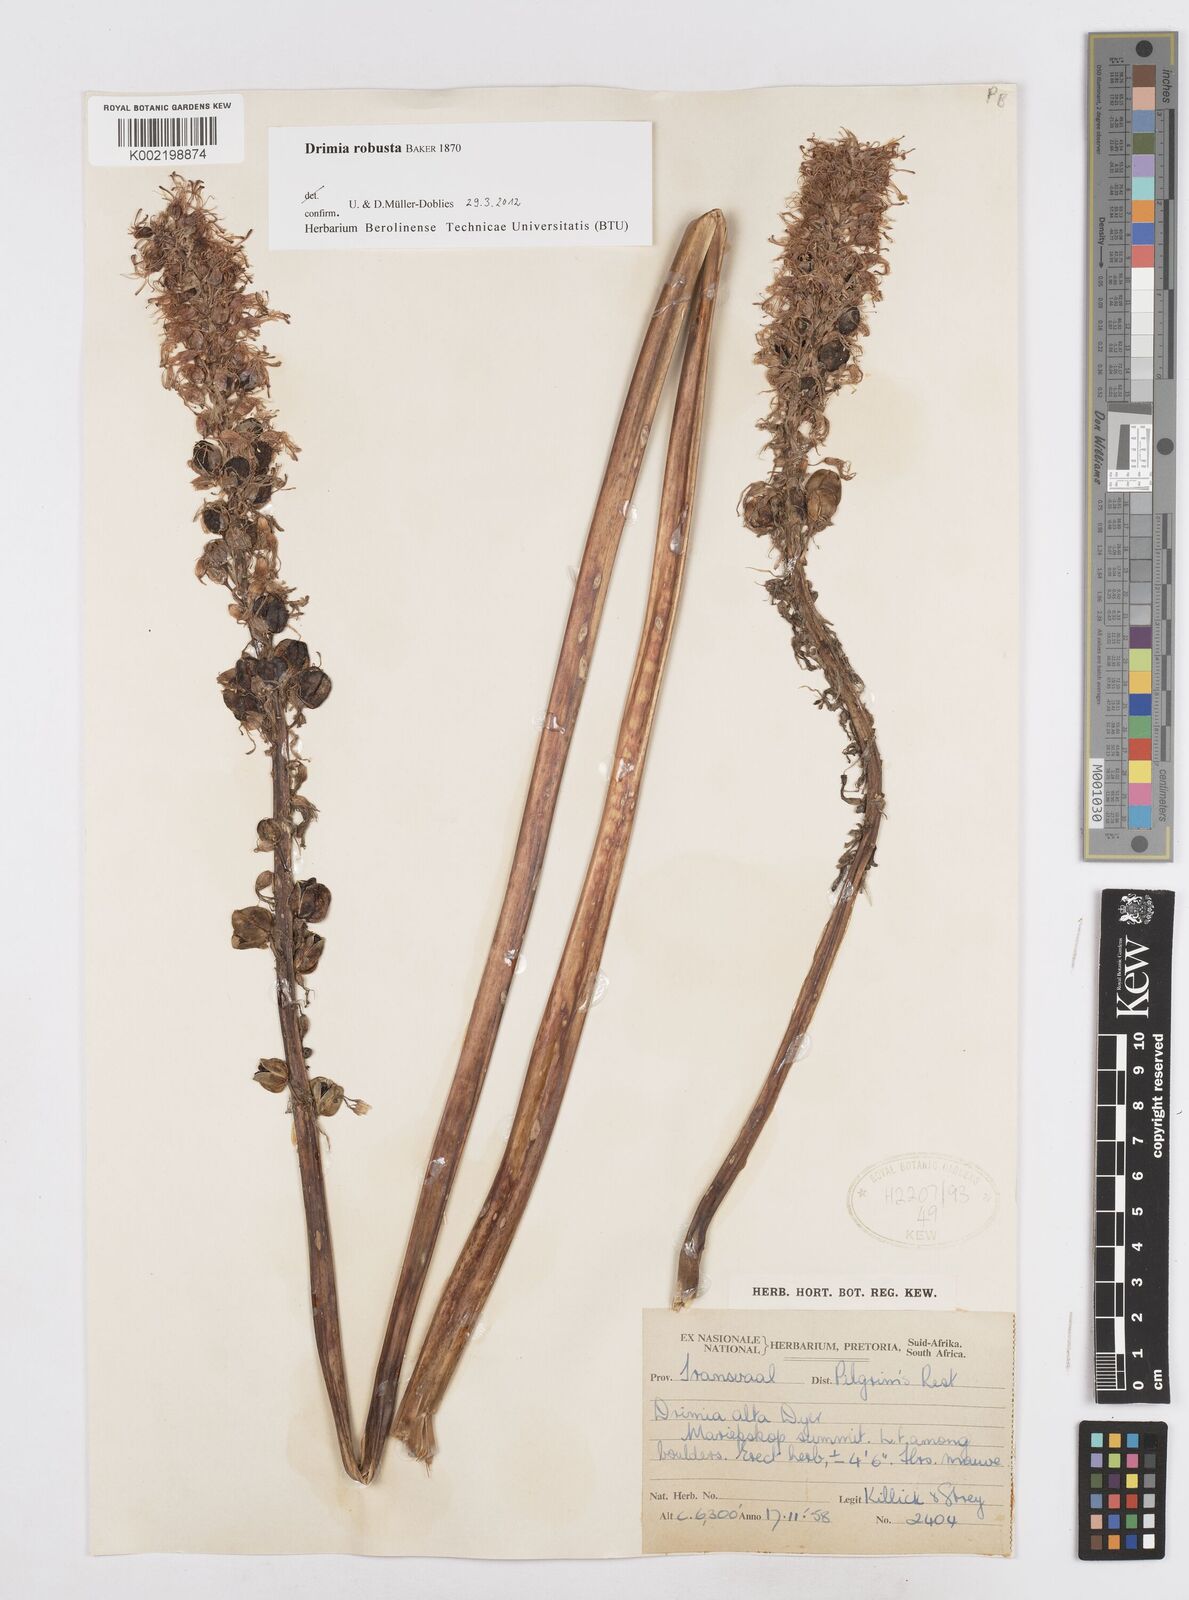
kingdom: Plantae
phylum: Tracheophyta
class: Liliopsida
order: Asparagales
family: Asparagaceae
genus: Drimia
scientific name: Drimia elata
